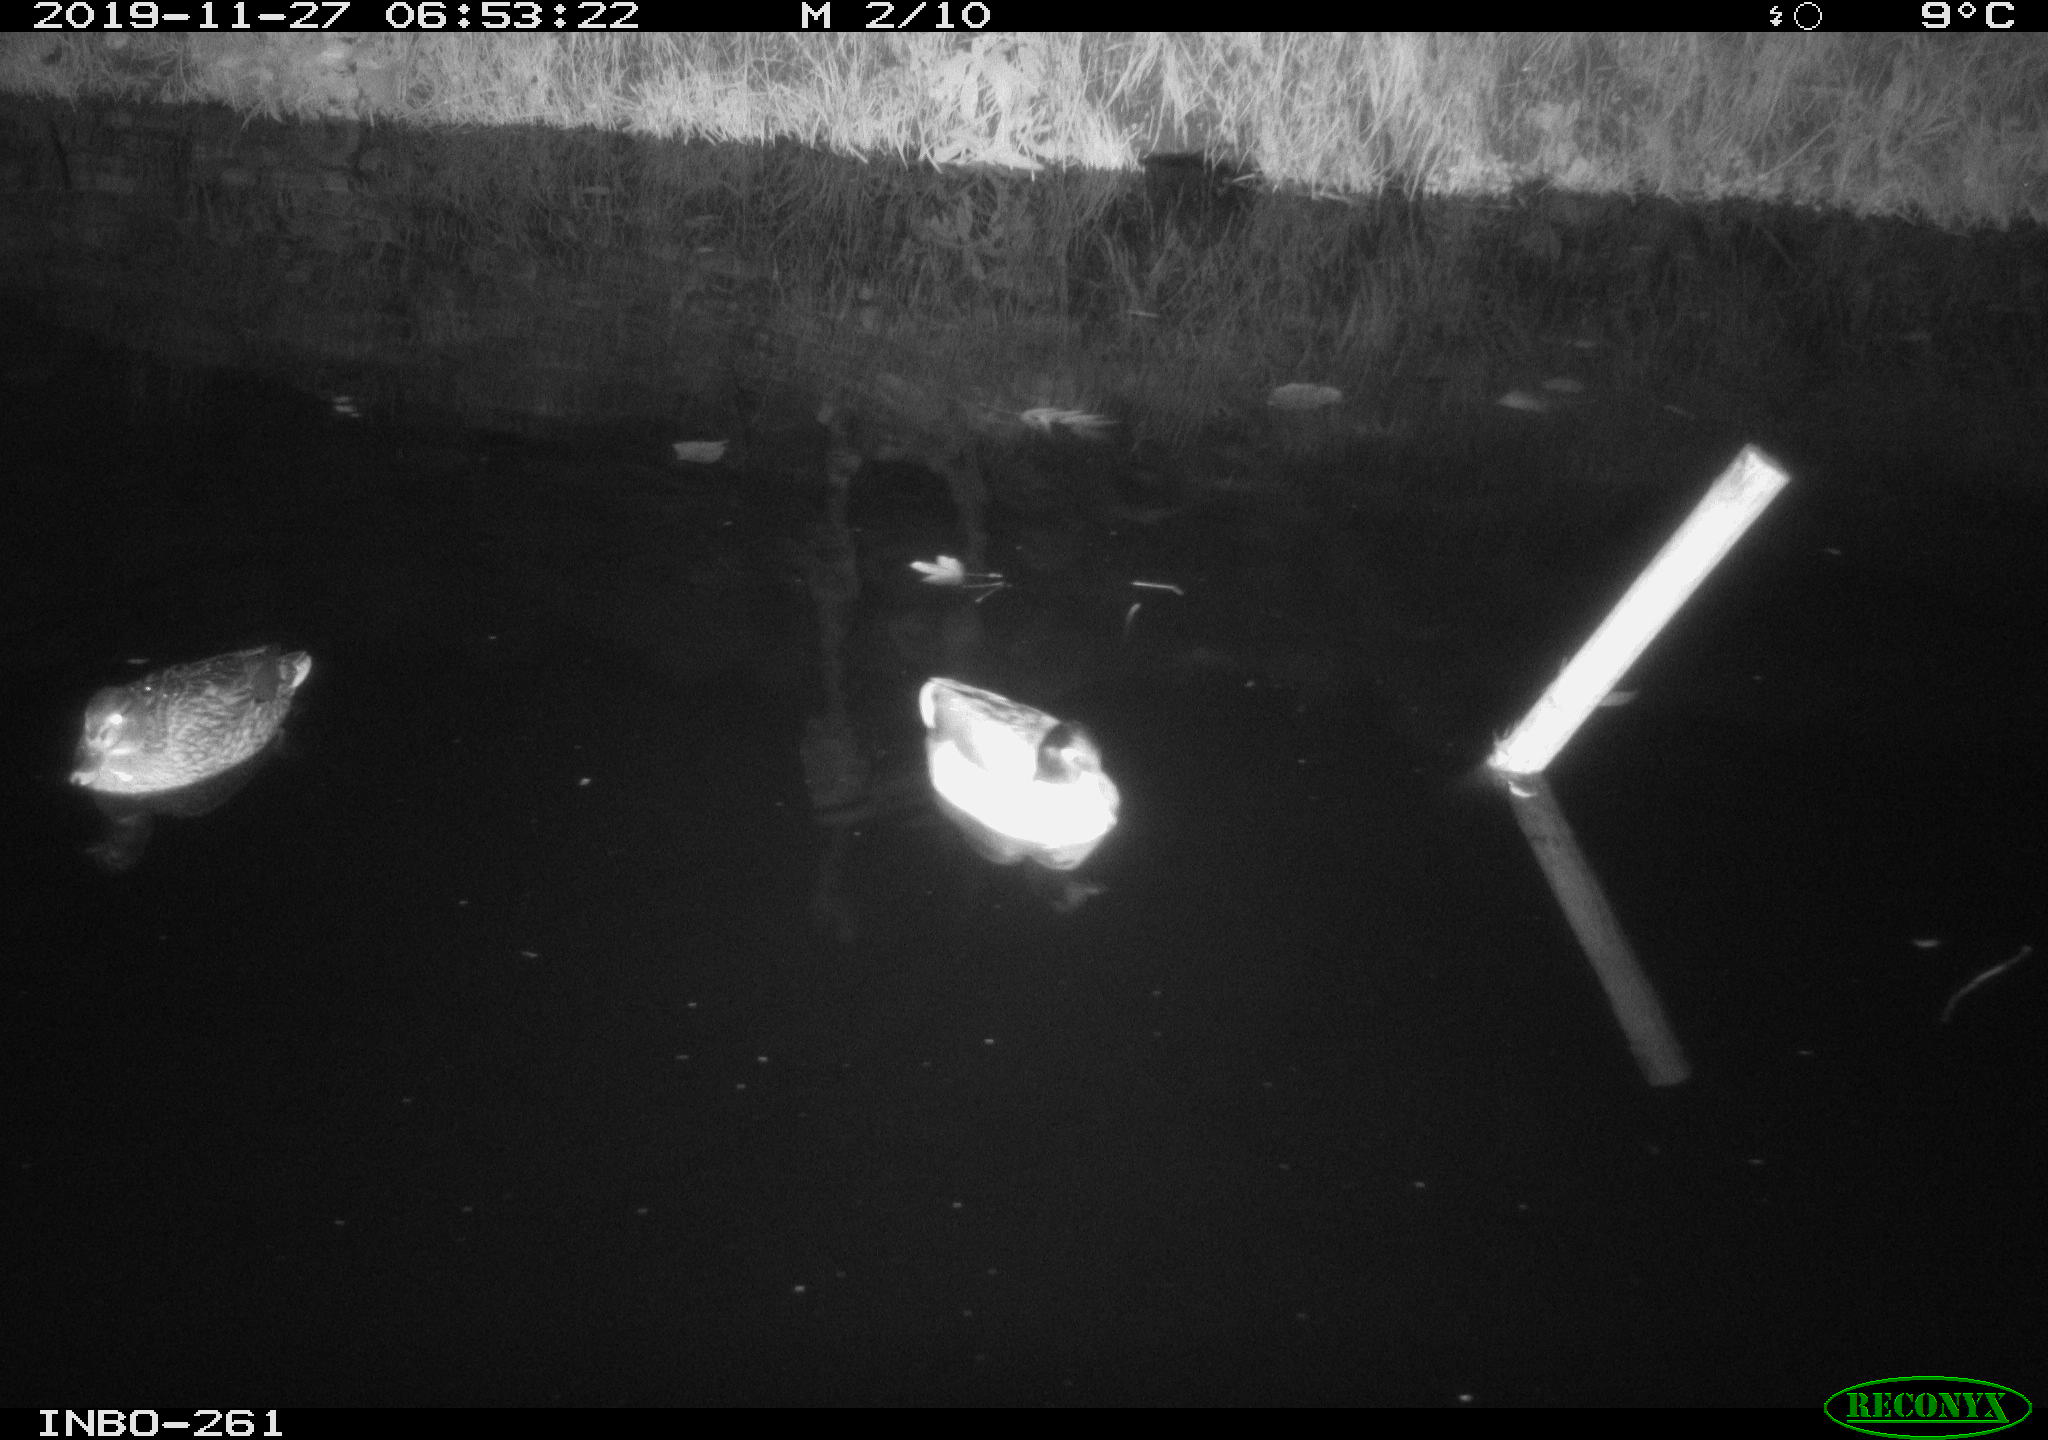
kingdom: Animalia
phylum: Chordata
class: Aves
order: Anseriformes
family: Anatidae
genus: Anas
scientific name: Anas platyrhynchos
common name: Mallard
